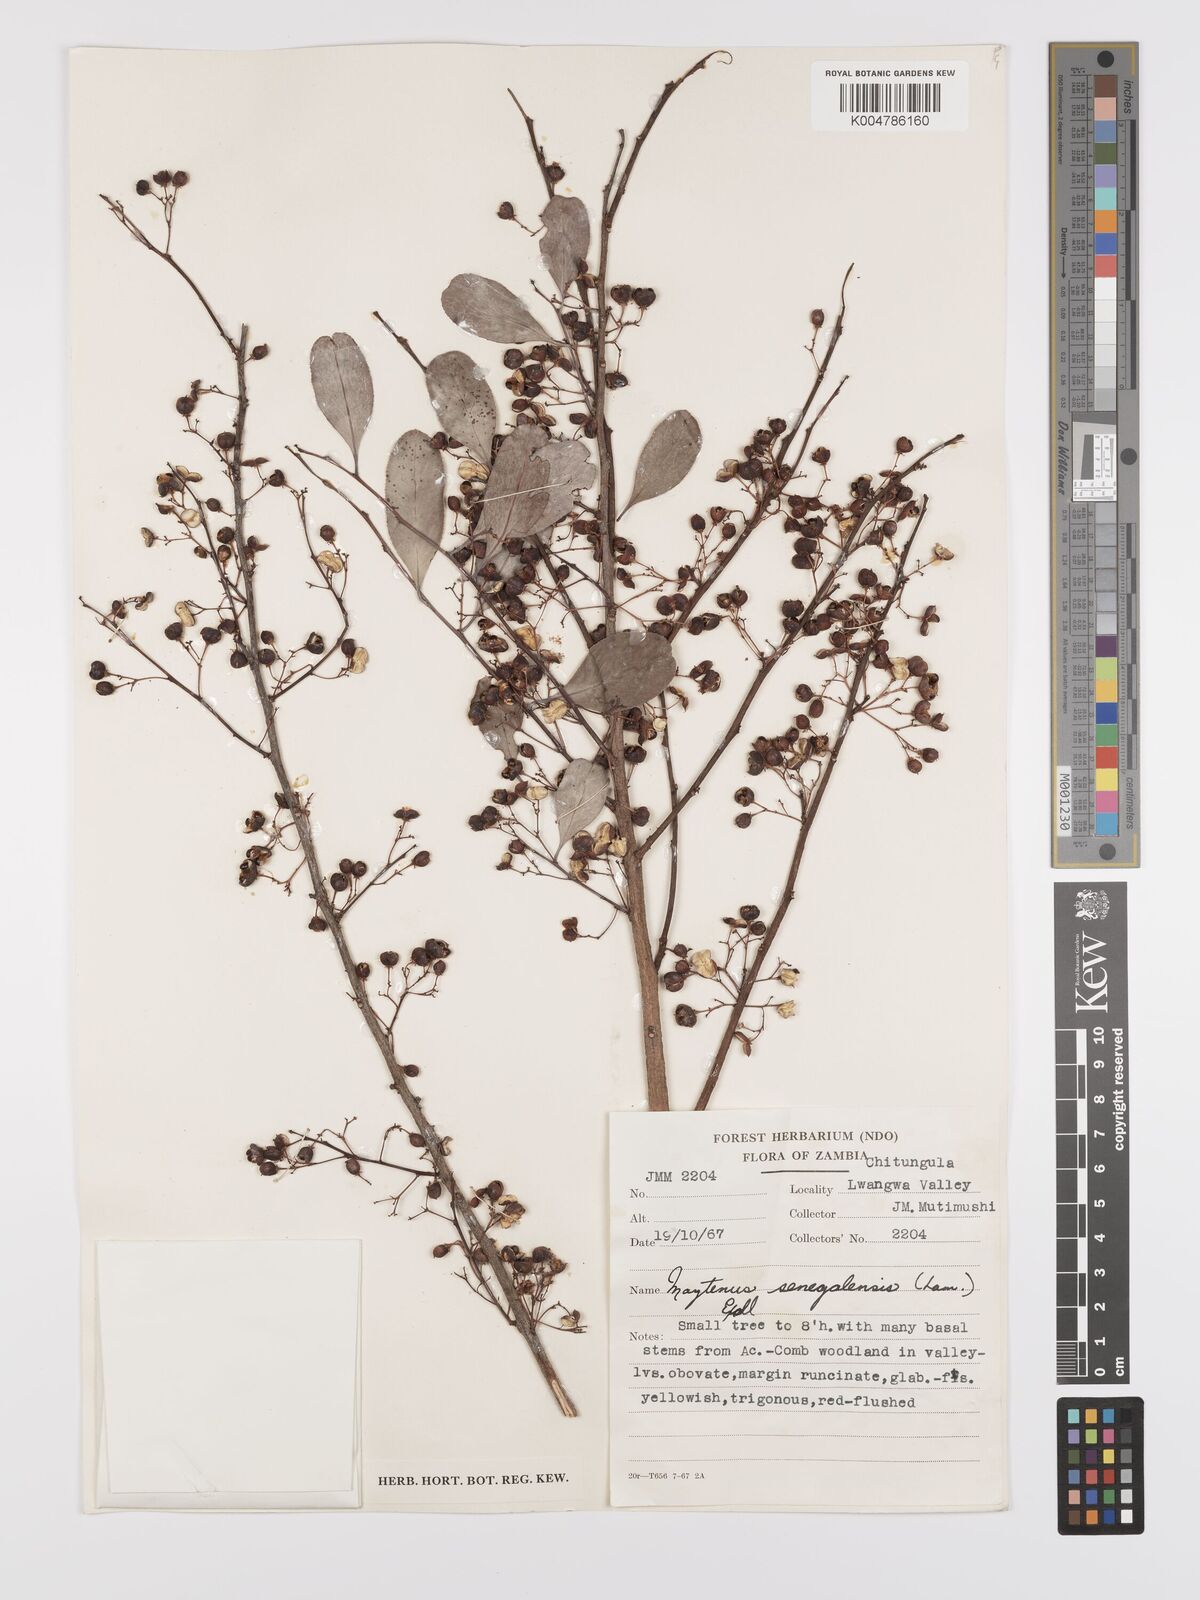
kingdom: Plantae
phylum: Tracheophyta
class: Magnoliopsida
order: Celastrales
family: Celastraceae
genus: Gymnosporia
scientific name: Gymnosporia senegalensis
